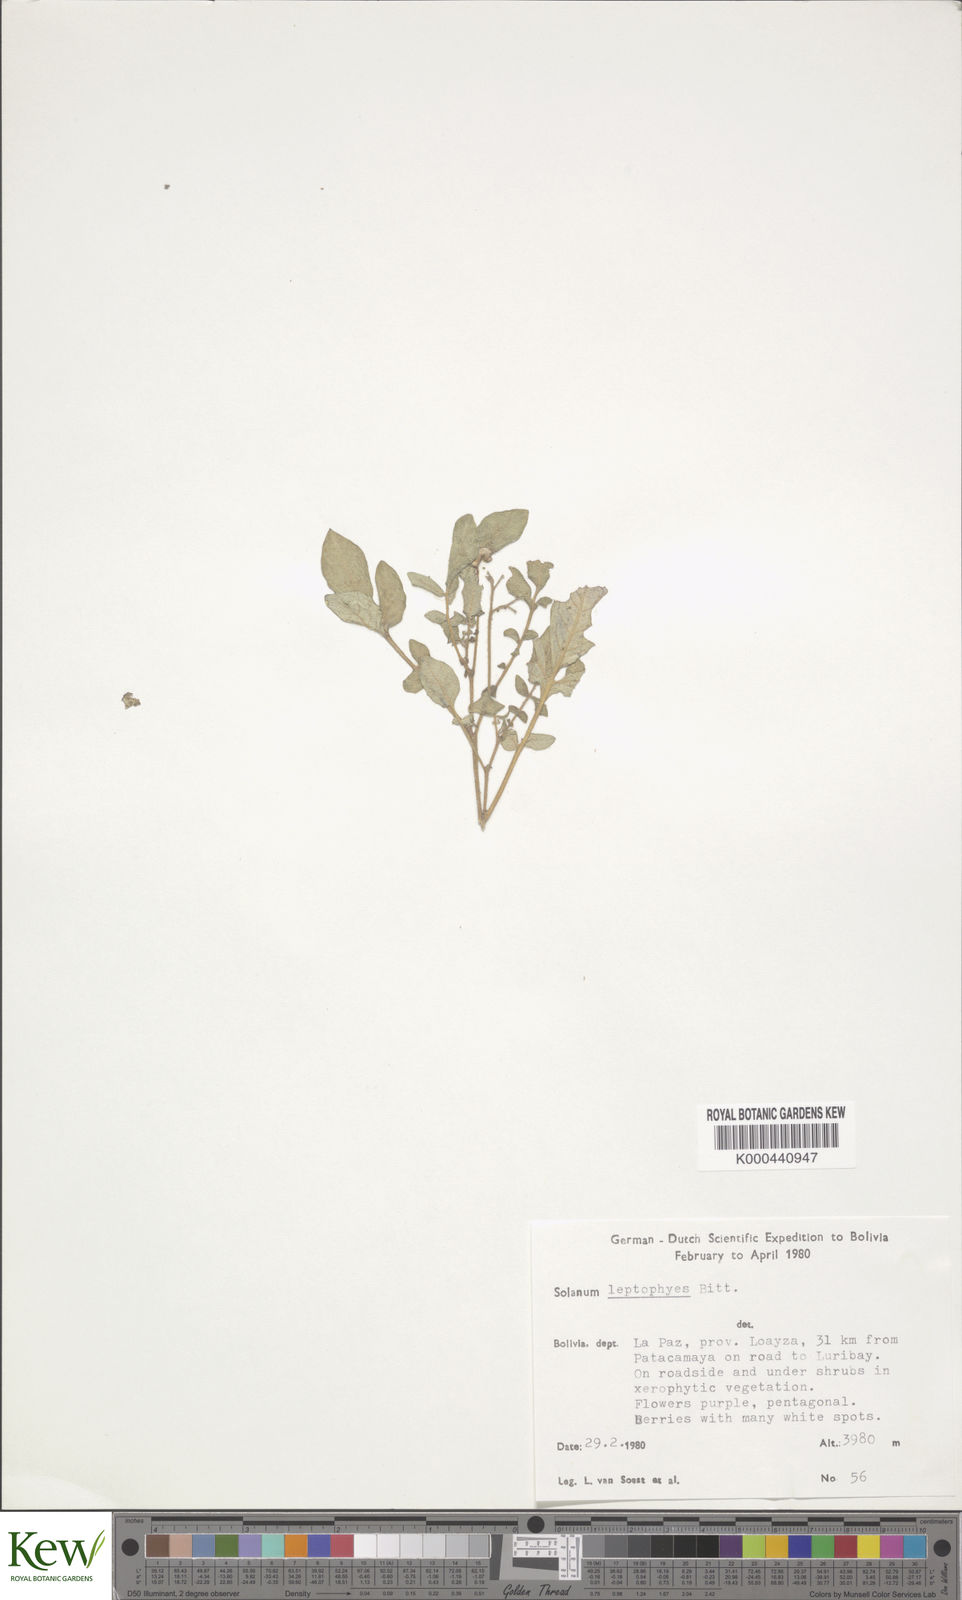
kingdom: Plantae
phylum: Tracheophyta
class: Magnoliopsida
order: Solanales
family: Solanaceae
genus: Solanum
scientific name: Solanum brevicaule
